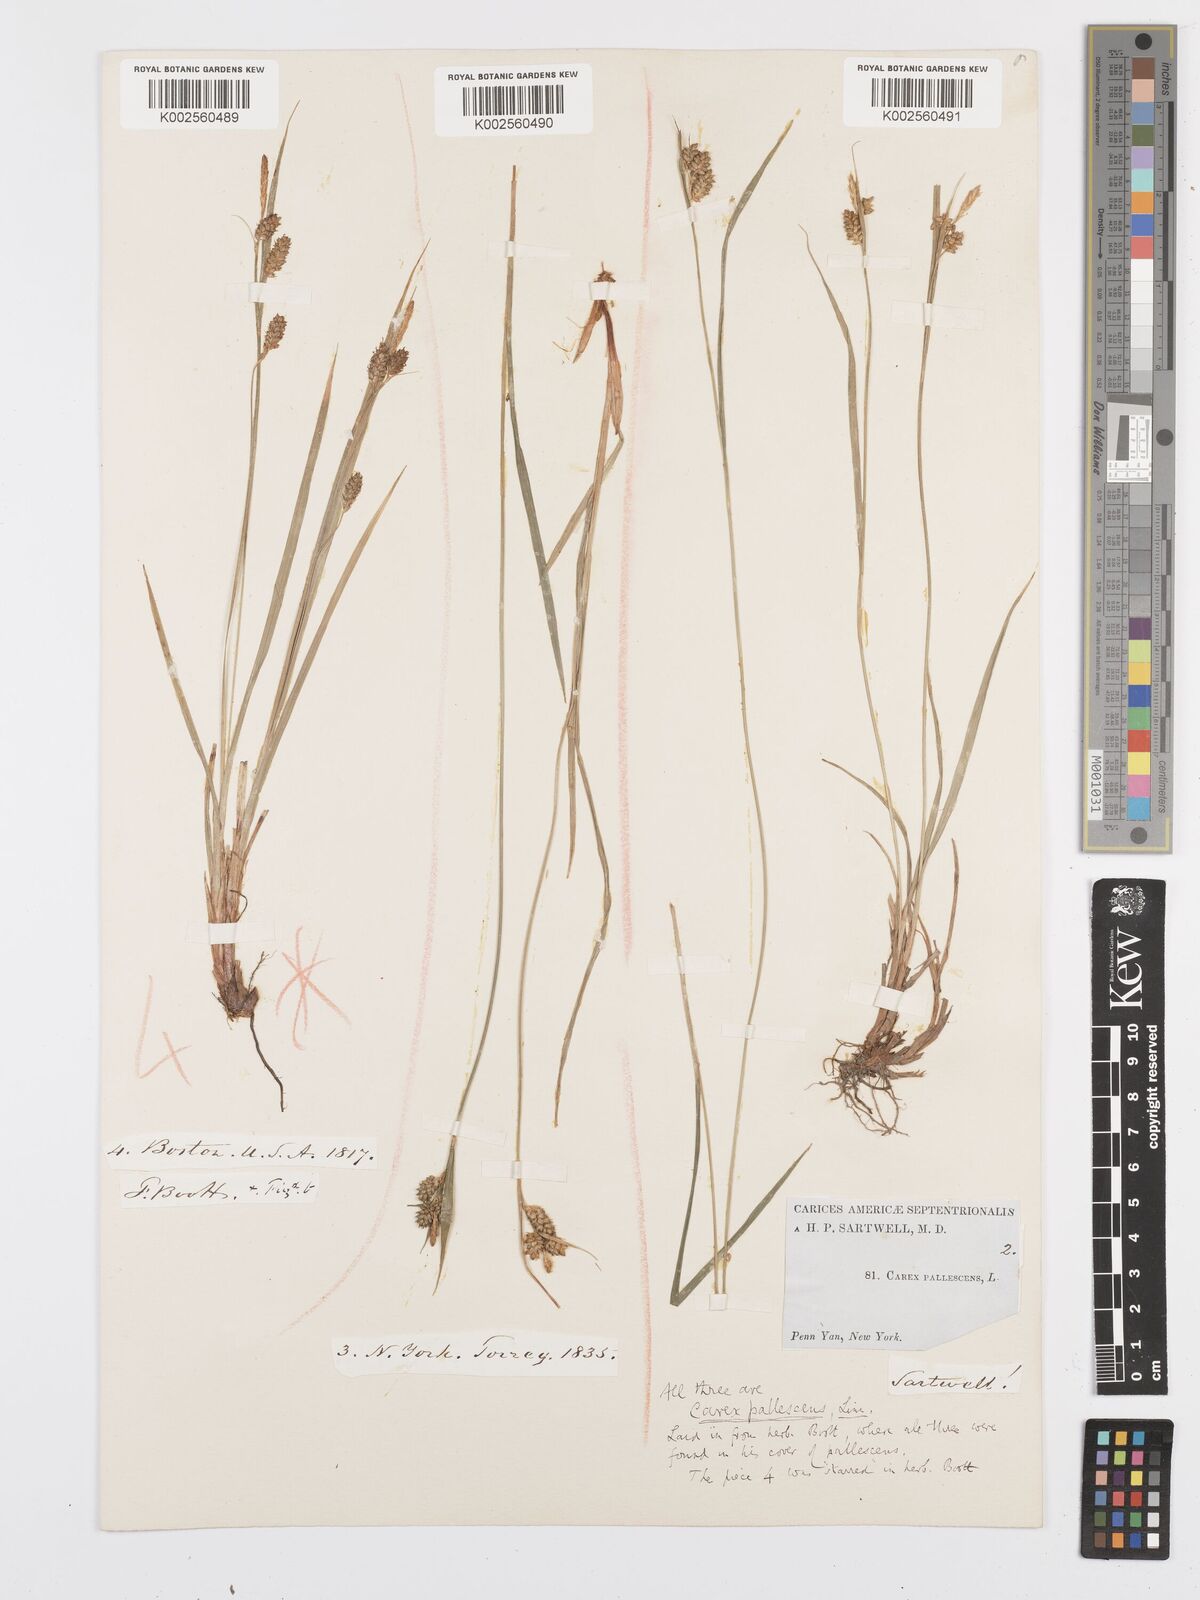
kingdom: Plantae
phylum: Tracheophyta
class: Liliopsida
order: Poales
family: Cyperaceae
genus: Carex
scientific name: Carex pallescens
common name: Pale sedge
